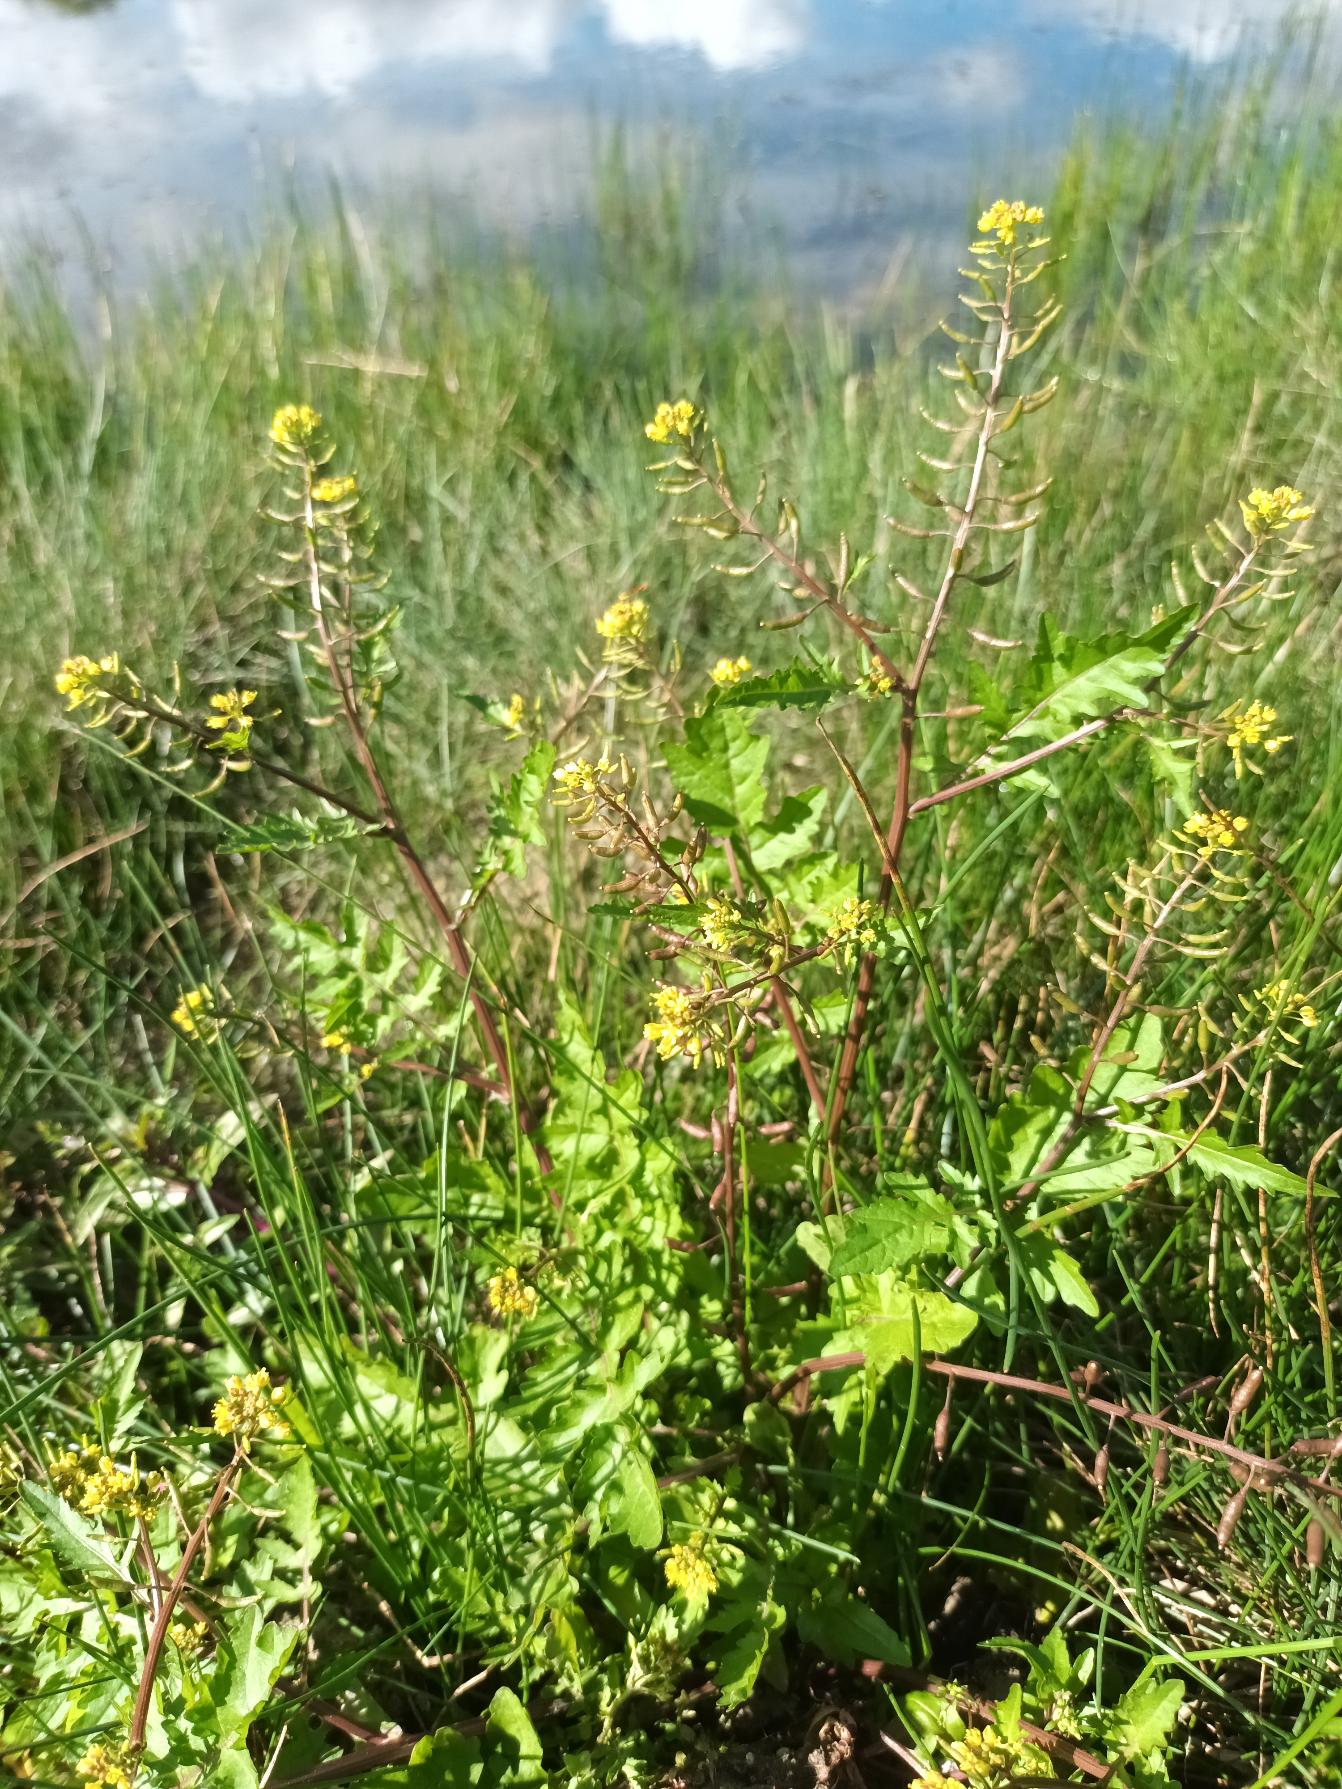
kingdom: Plantae
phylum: Tracheophyta
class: Magnoliopsida
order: Brassicales
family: Brassicaceae
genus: Rorippa
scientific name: Rorippa palustris
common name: Kær-guldkarse
